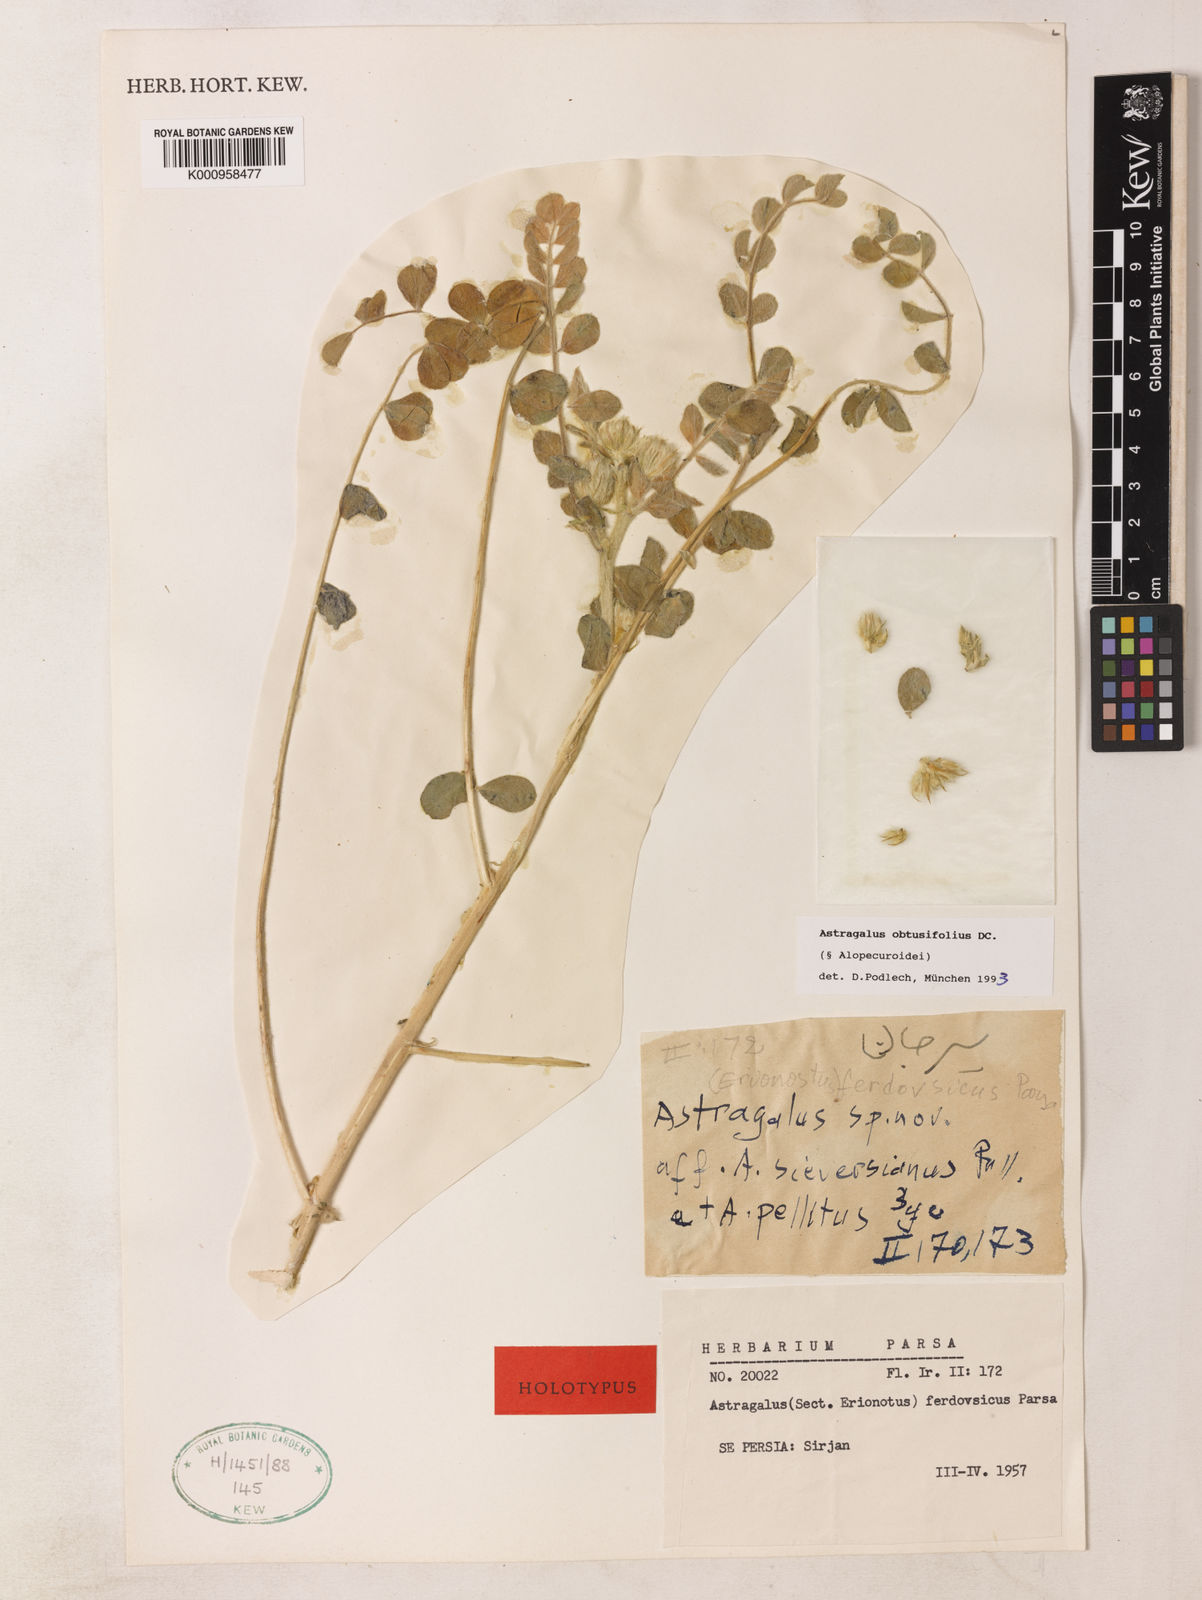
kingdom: Plantae
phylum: Tracheophyta
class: Magnoliopsida
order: Fabales
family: Fabaceae
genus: Astragalus
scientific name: Astragalus
